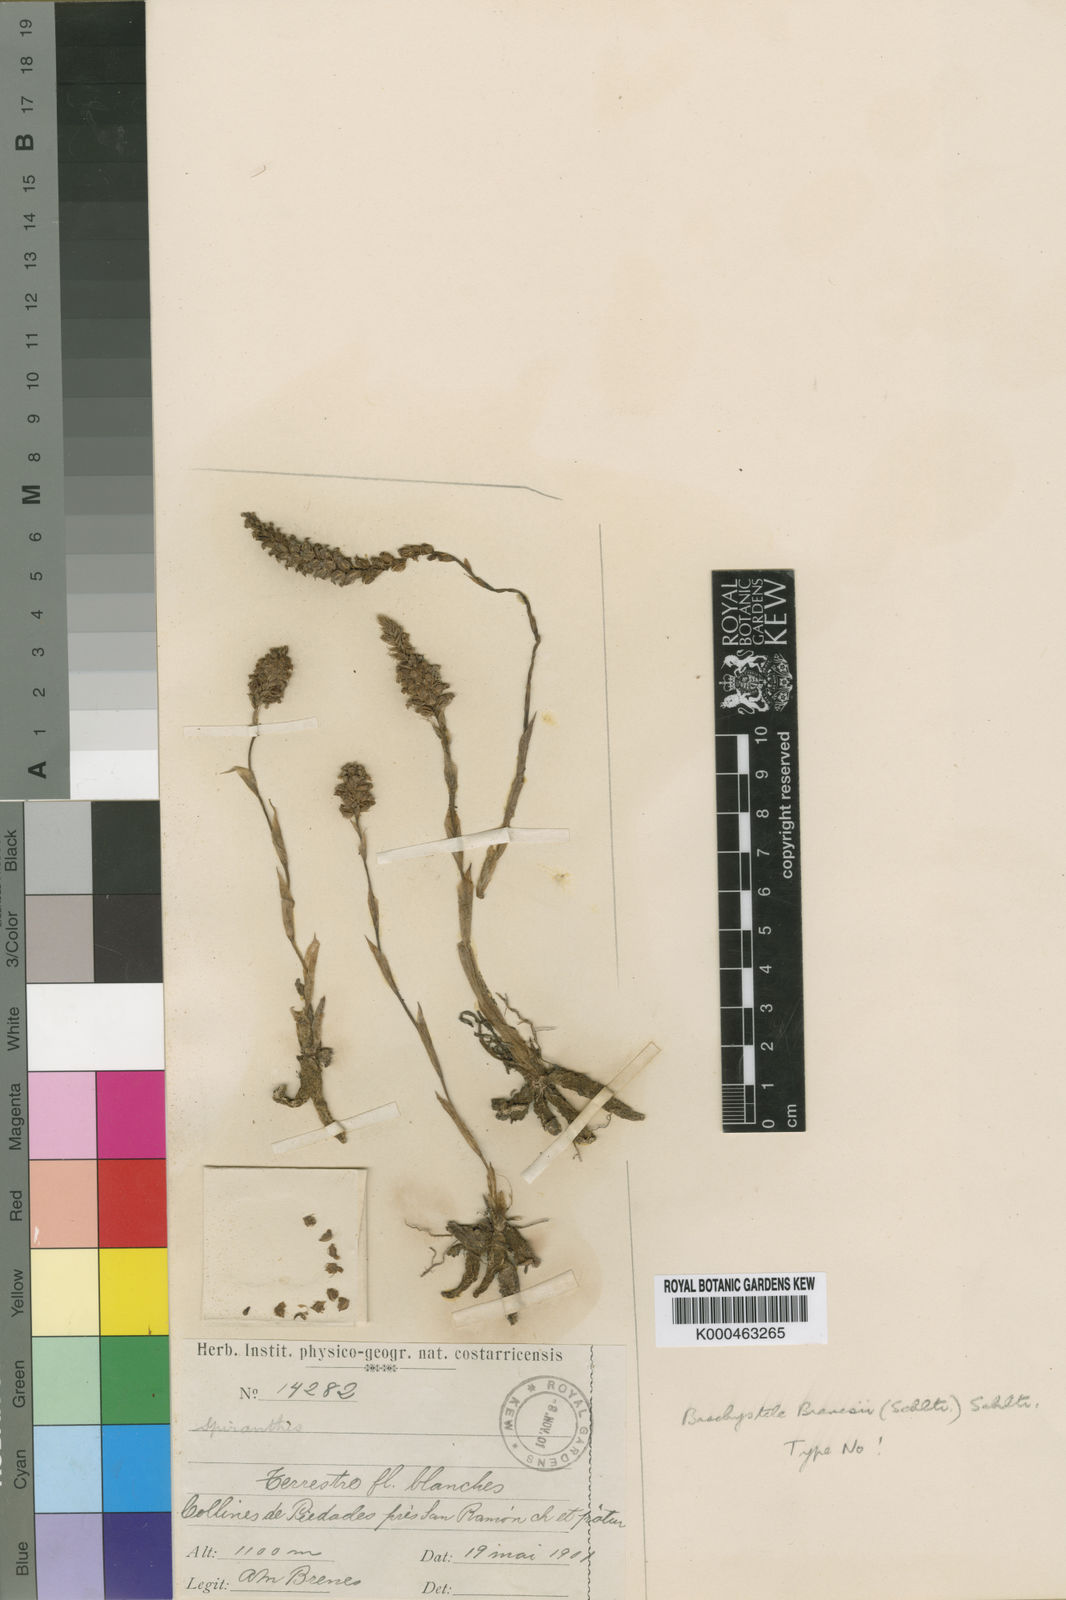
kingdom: Plantae
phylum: Tracheophyta
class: Liliopsida
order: Asparagales
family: Orchidaceae
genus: Brachystele
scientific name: Brachystele guayanensis
